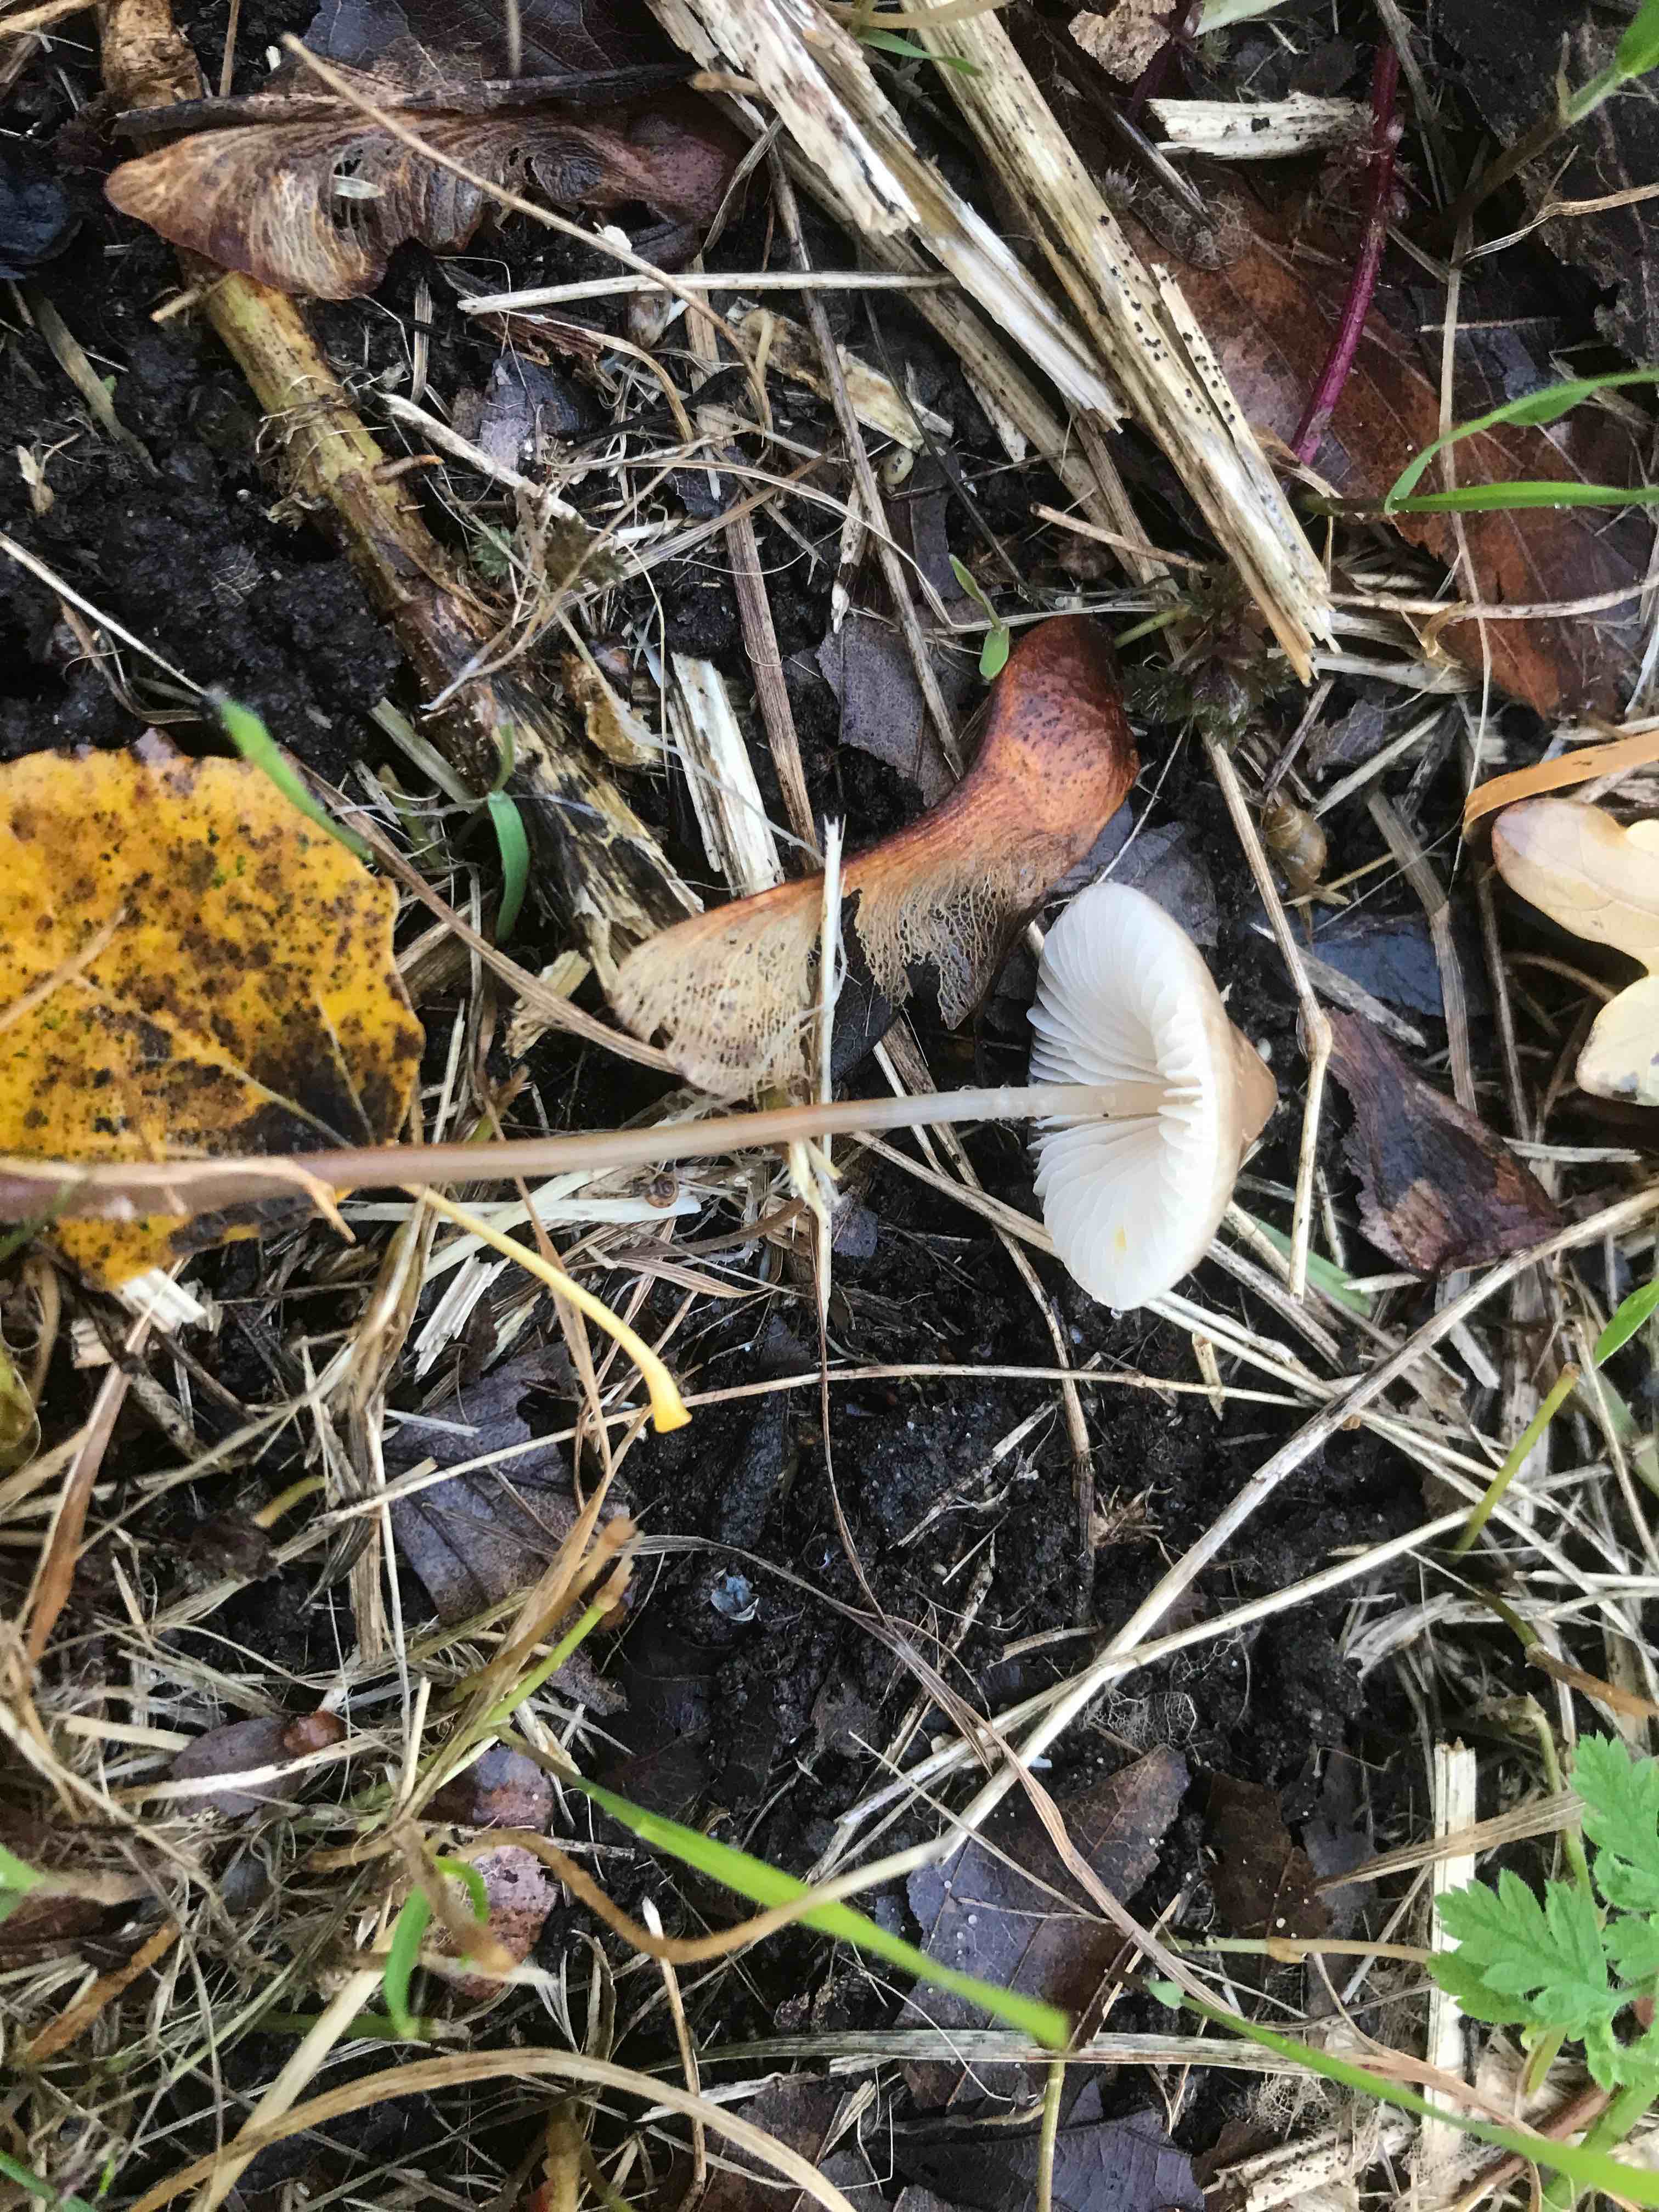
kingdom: Fungi
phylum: Basidiomycota
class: Agaricomycetes
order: Agaricales
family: Mycenaceae
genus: Mycena
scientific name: Mycena
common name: huesvamp
